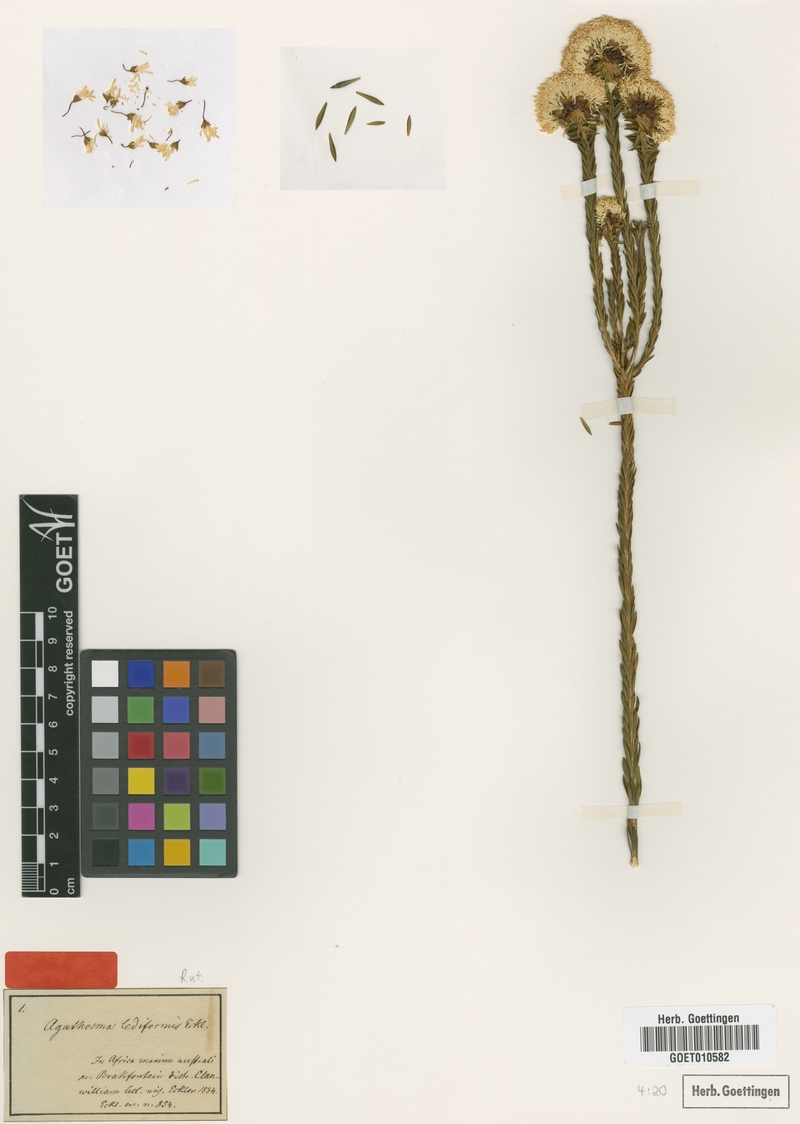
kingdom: Plantae
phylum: Tracheophyta
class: Magnoliopsida
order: Sapindales
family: Rutaceae
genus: Agathosma
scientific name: Agathosma bifida
